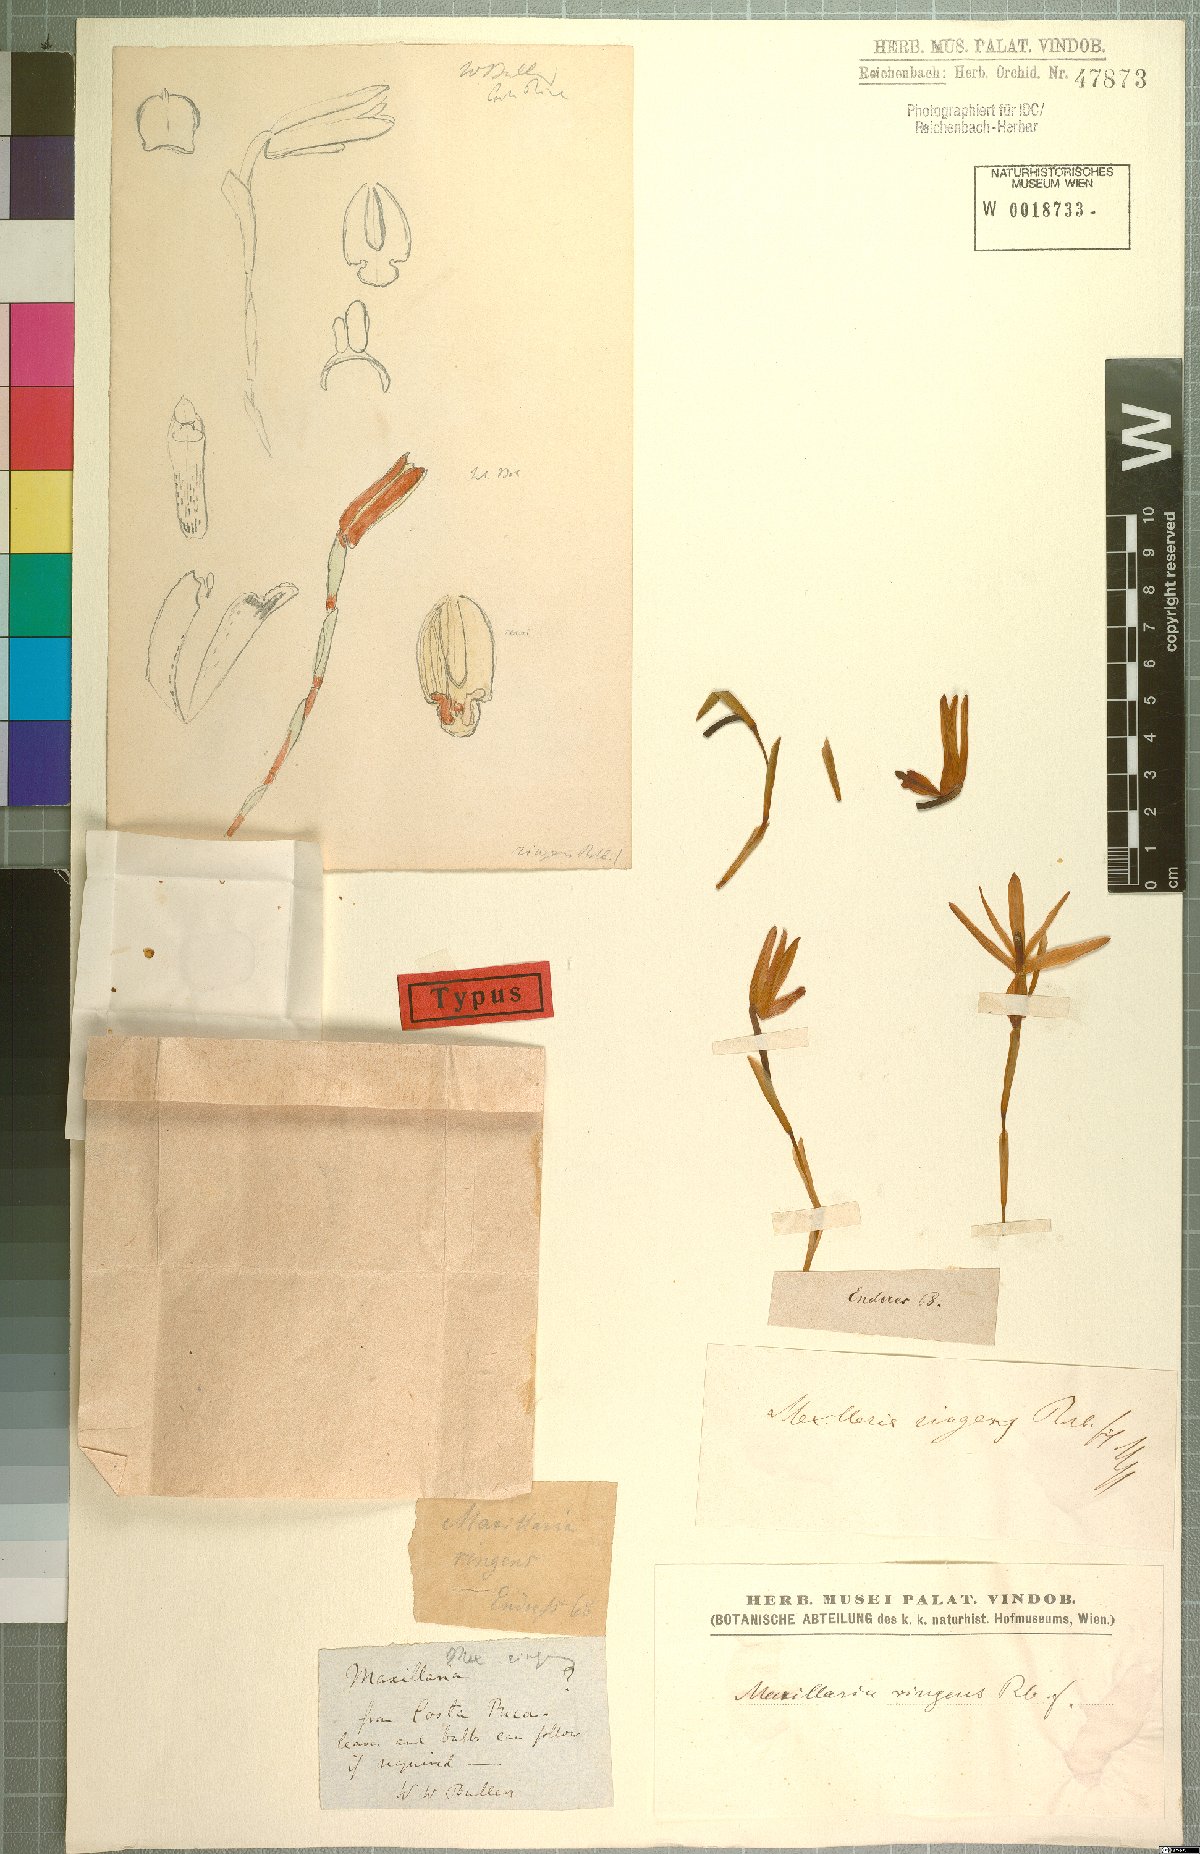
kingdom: Plantae
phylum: Tracheophyta
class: Liliopsida
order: Asparagales
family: Orchidaceae
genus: Maxillaria
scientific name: Maxillaria ringens
